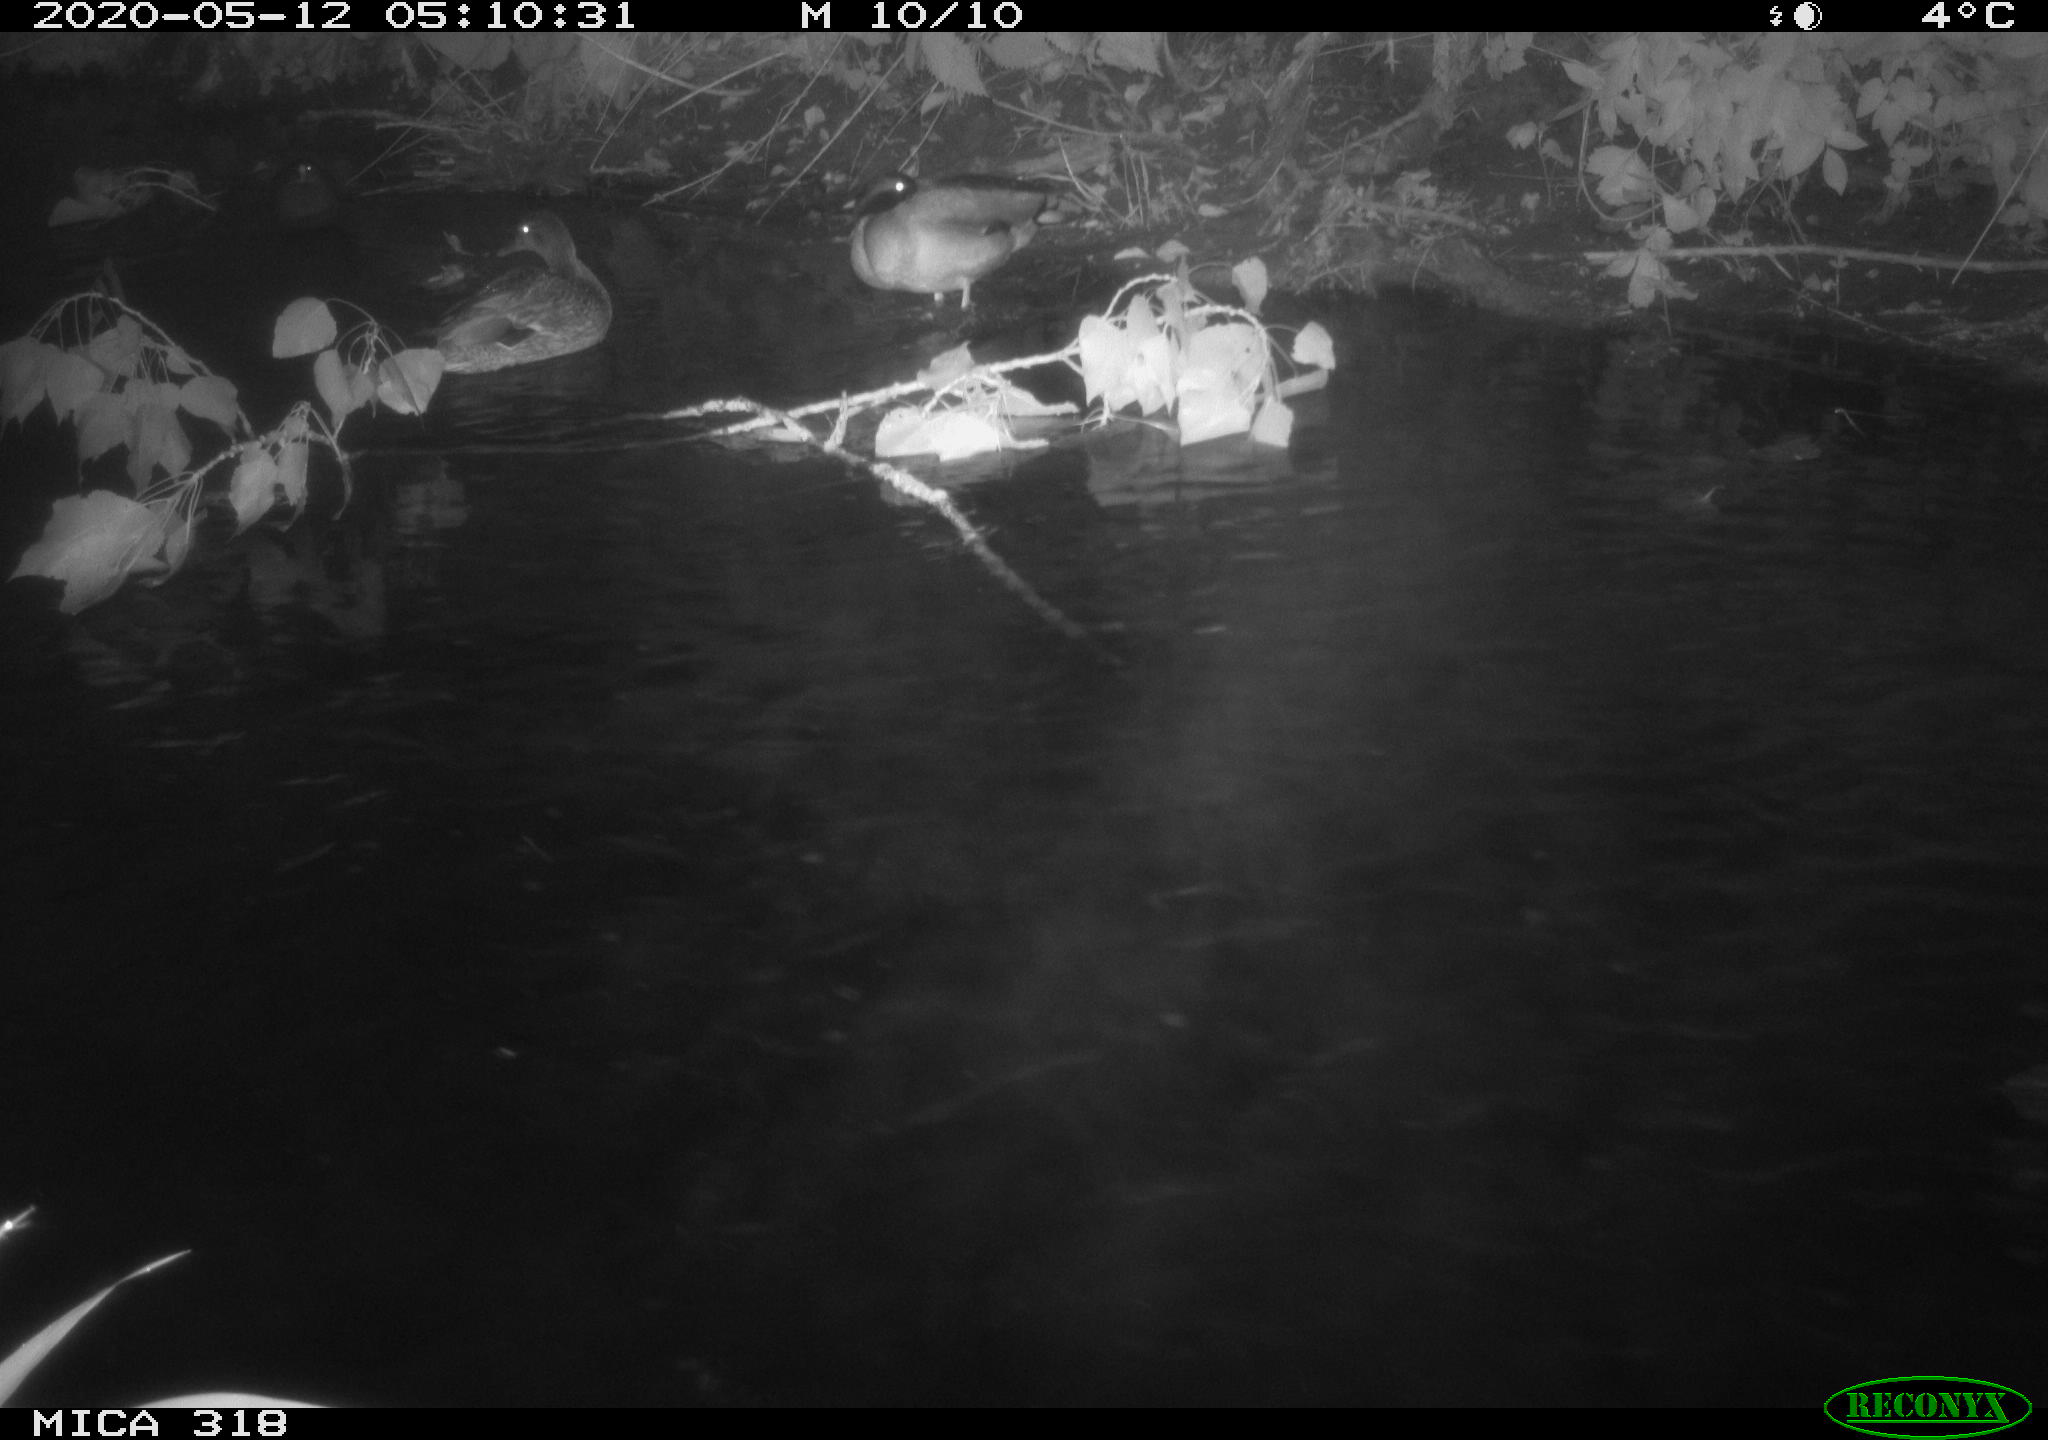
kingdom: Animalia
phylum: Chordata
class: Aves
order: Anseriformes
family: Anatidae
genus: Anas
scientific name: Anas platyrhynchos
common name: Mallard
